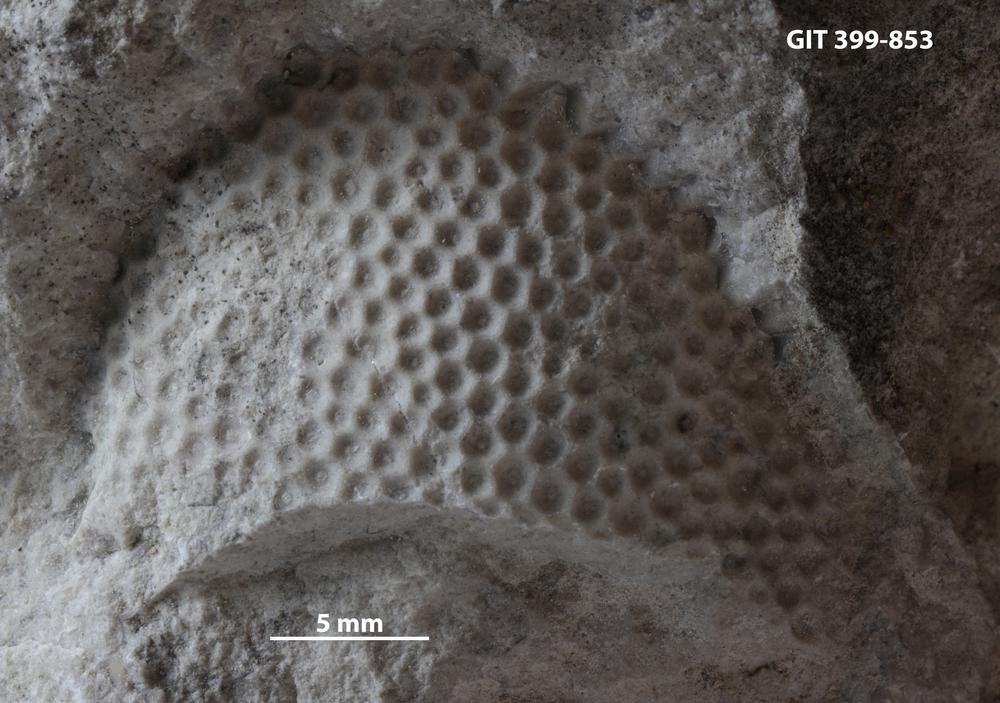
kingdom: Plantae
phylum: Chlorophyta
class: Ulvophyceae
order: Cyclocrinales
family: Cyclocrinaceae
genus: Mastopora
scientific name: Mastopora concava
